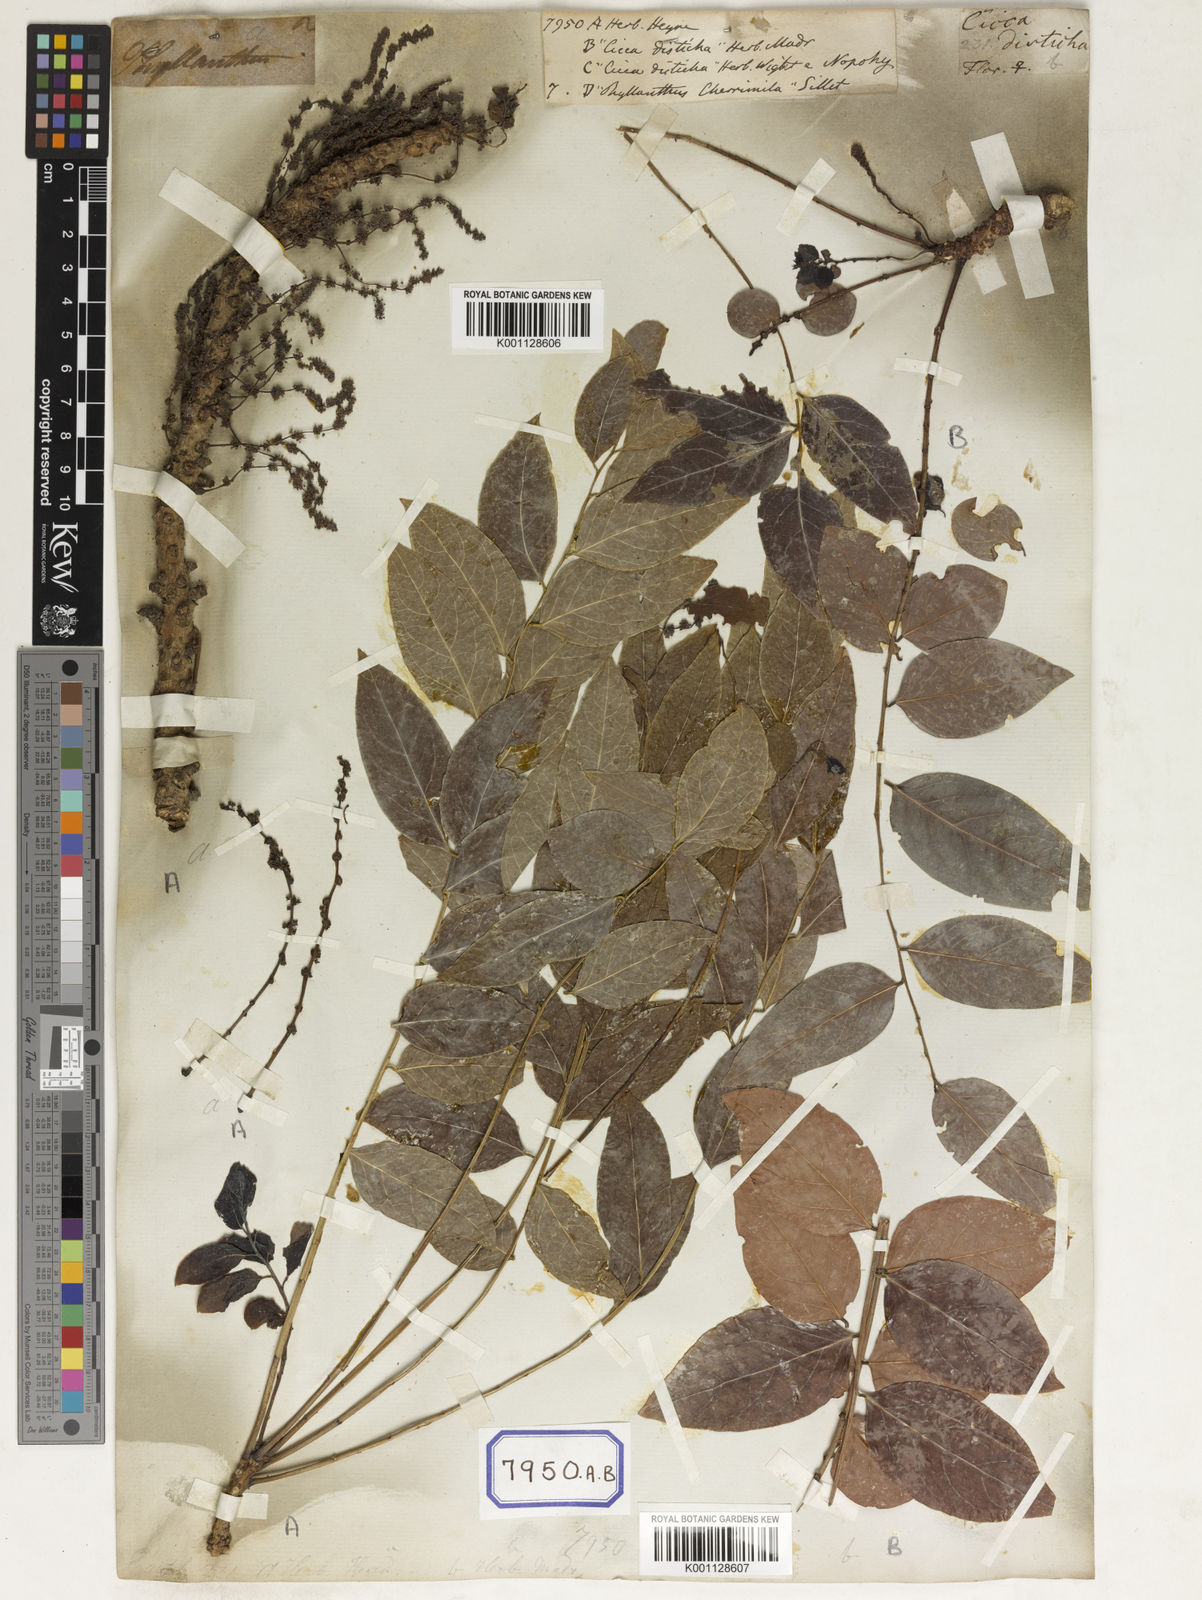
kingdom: Plantae
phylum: Tracheophyta
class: Magnoliopsida
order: Malpighiales
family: Euphorbiaceae
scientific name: Euphorbiaceae
